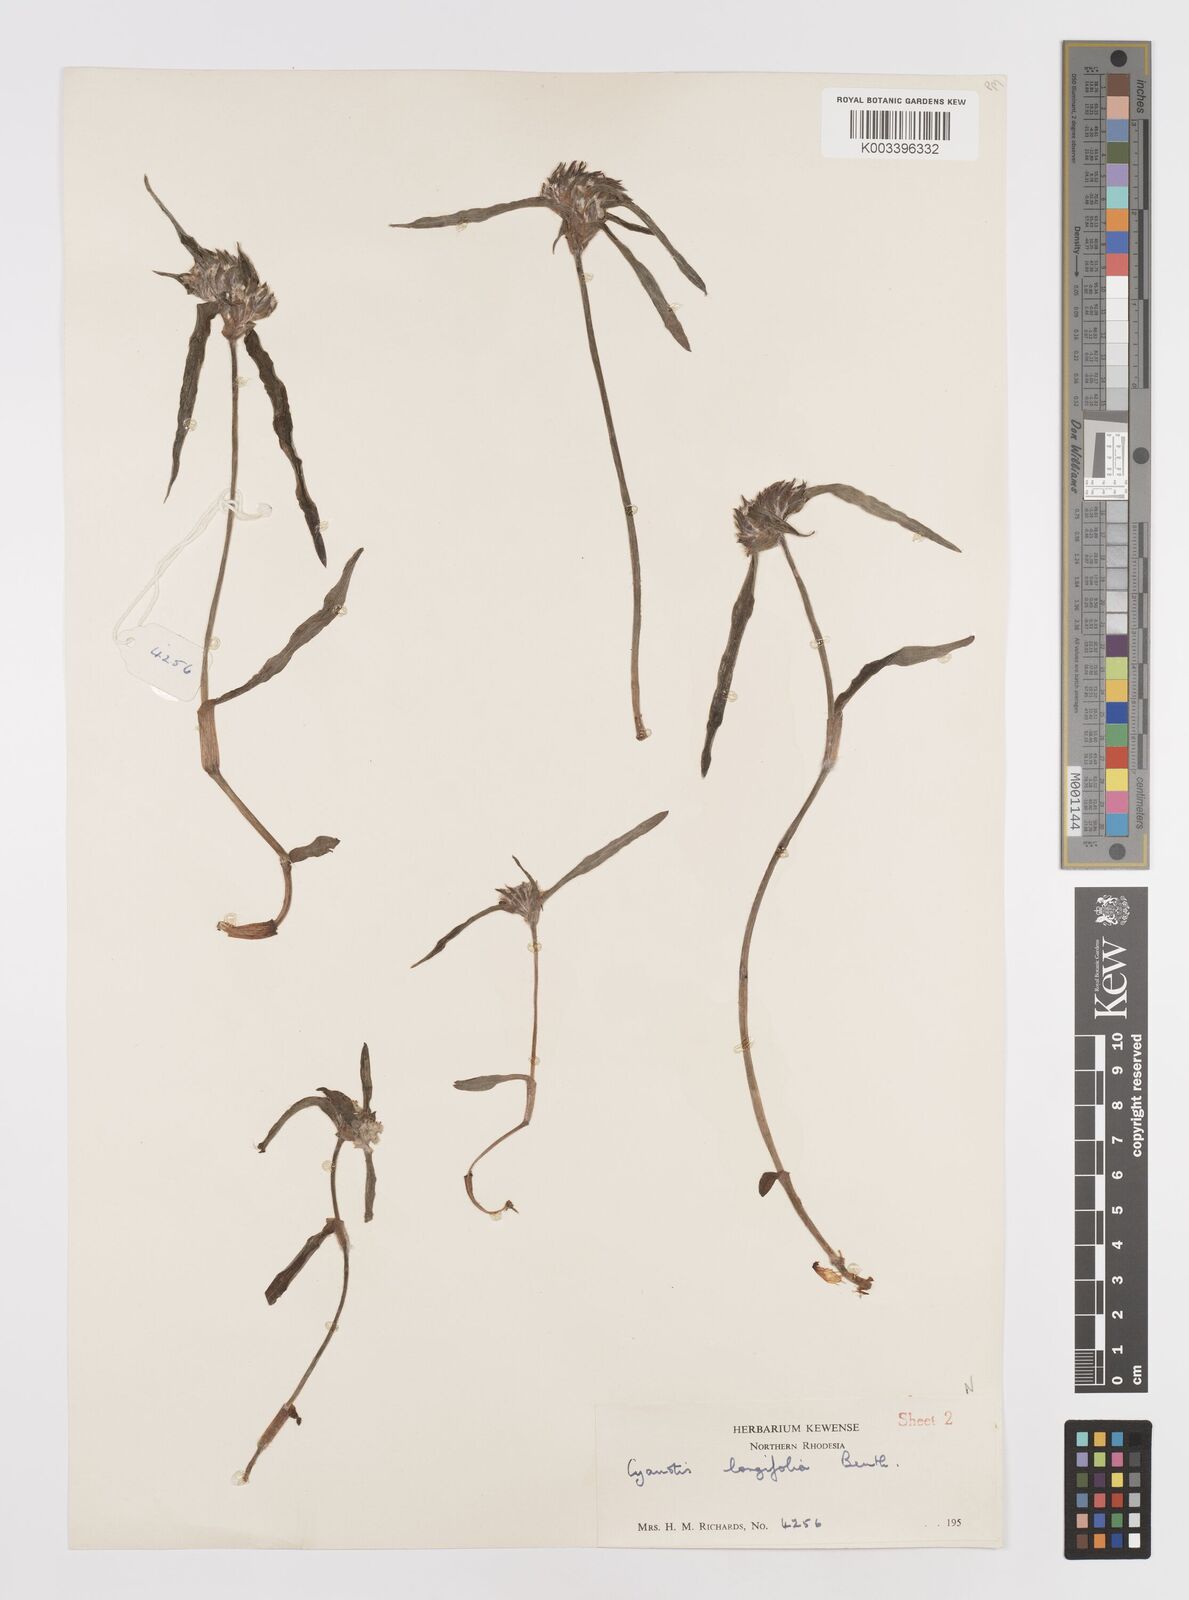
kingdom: Plantae
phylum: Tracheophyta
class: Liliopsida
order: Commelinales
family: Commelinaceae
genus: Cyanotis
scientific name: Cyanotis longifolia
